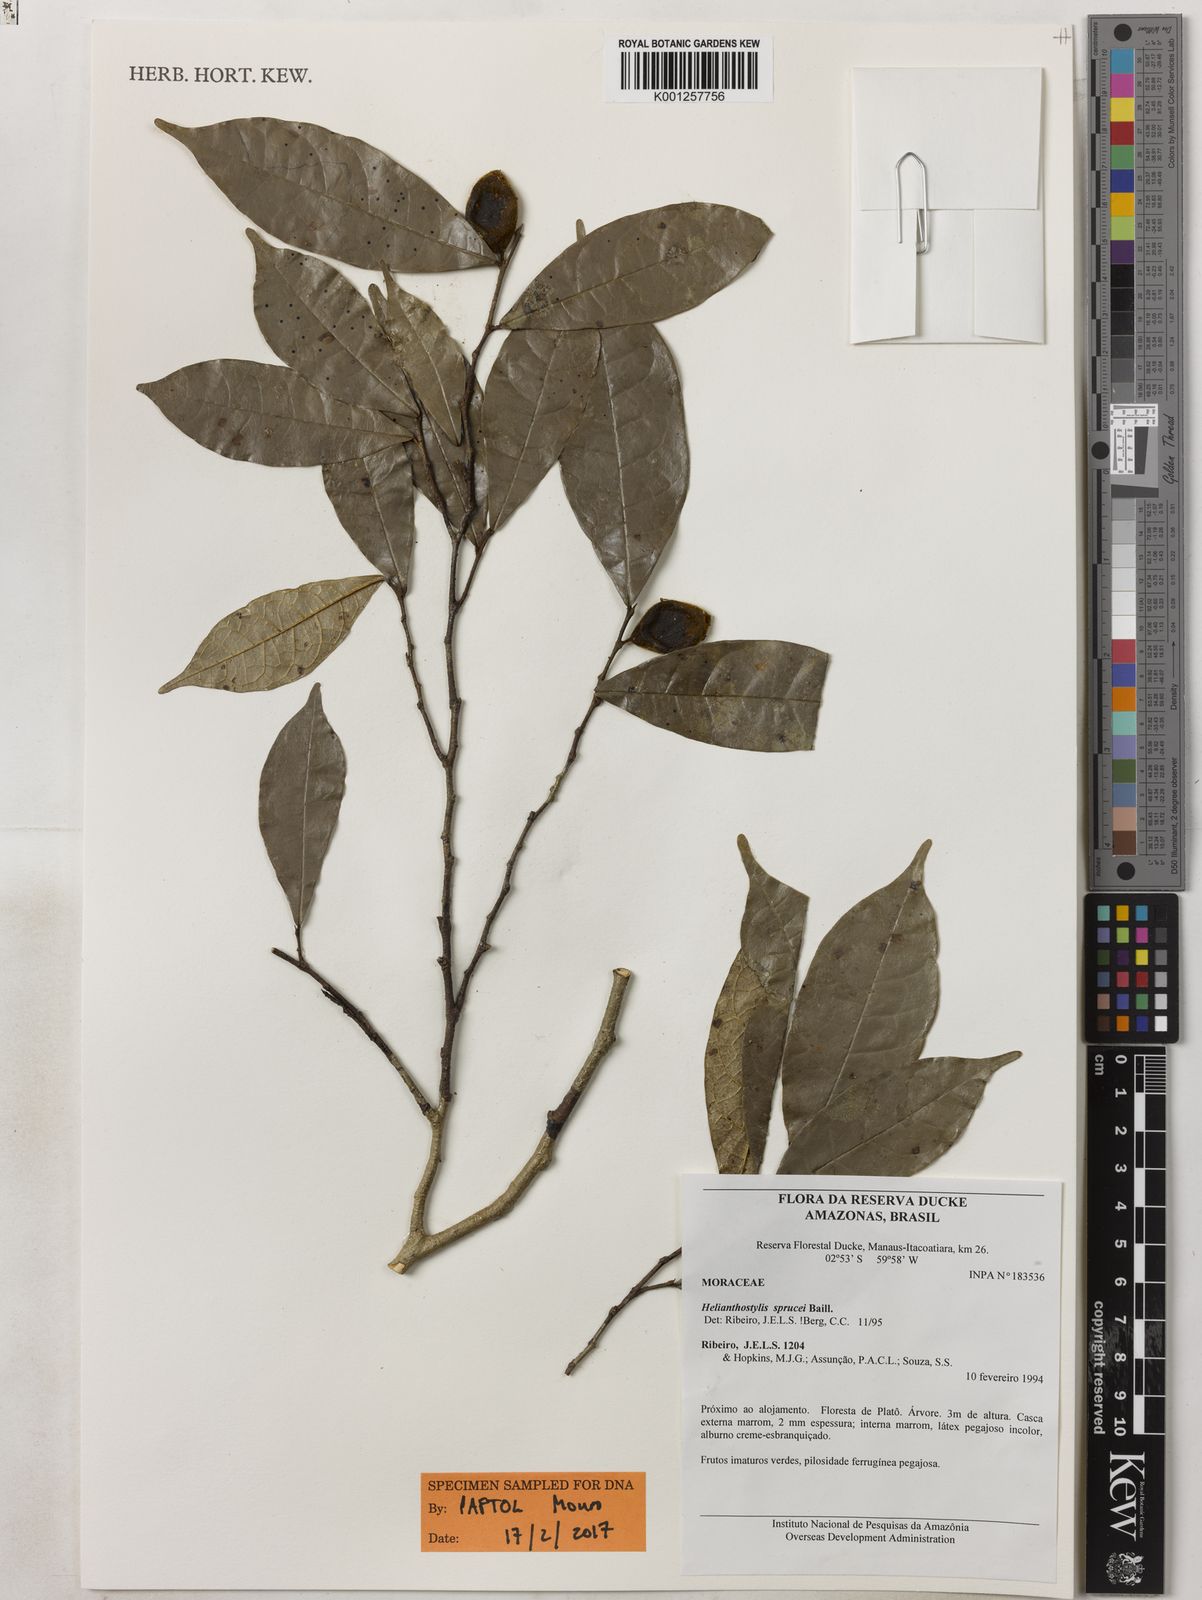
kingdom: Plantae
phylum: Tracheophyta
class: Magnoliopsida
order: Rosales
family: Moraceae
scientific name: Moraceae
